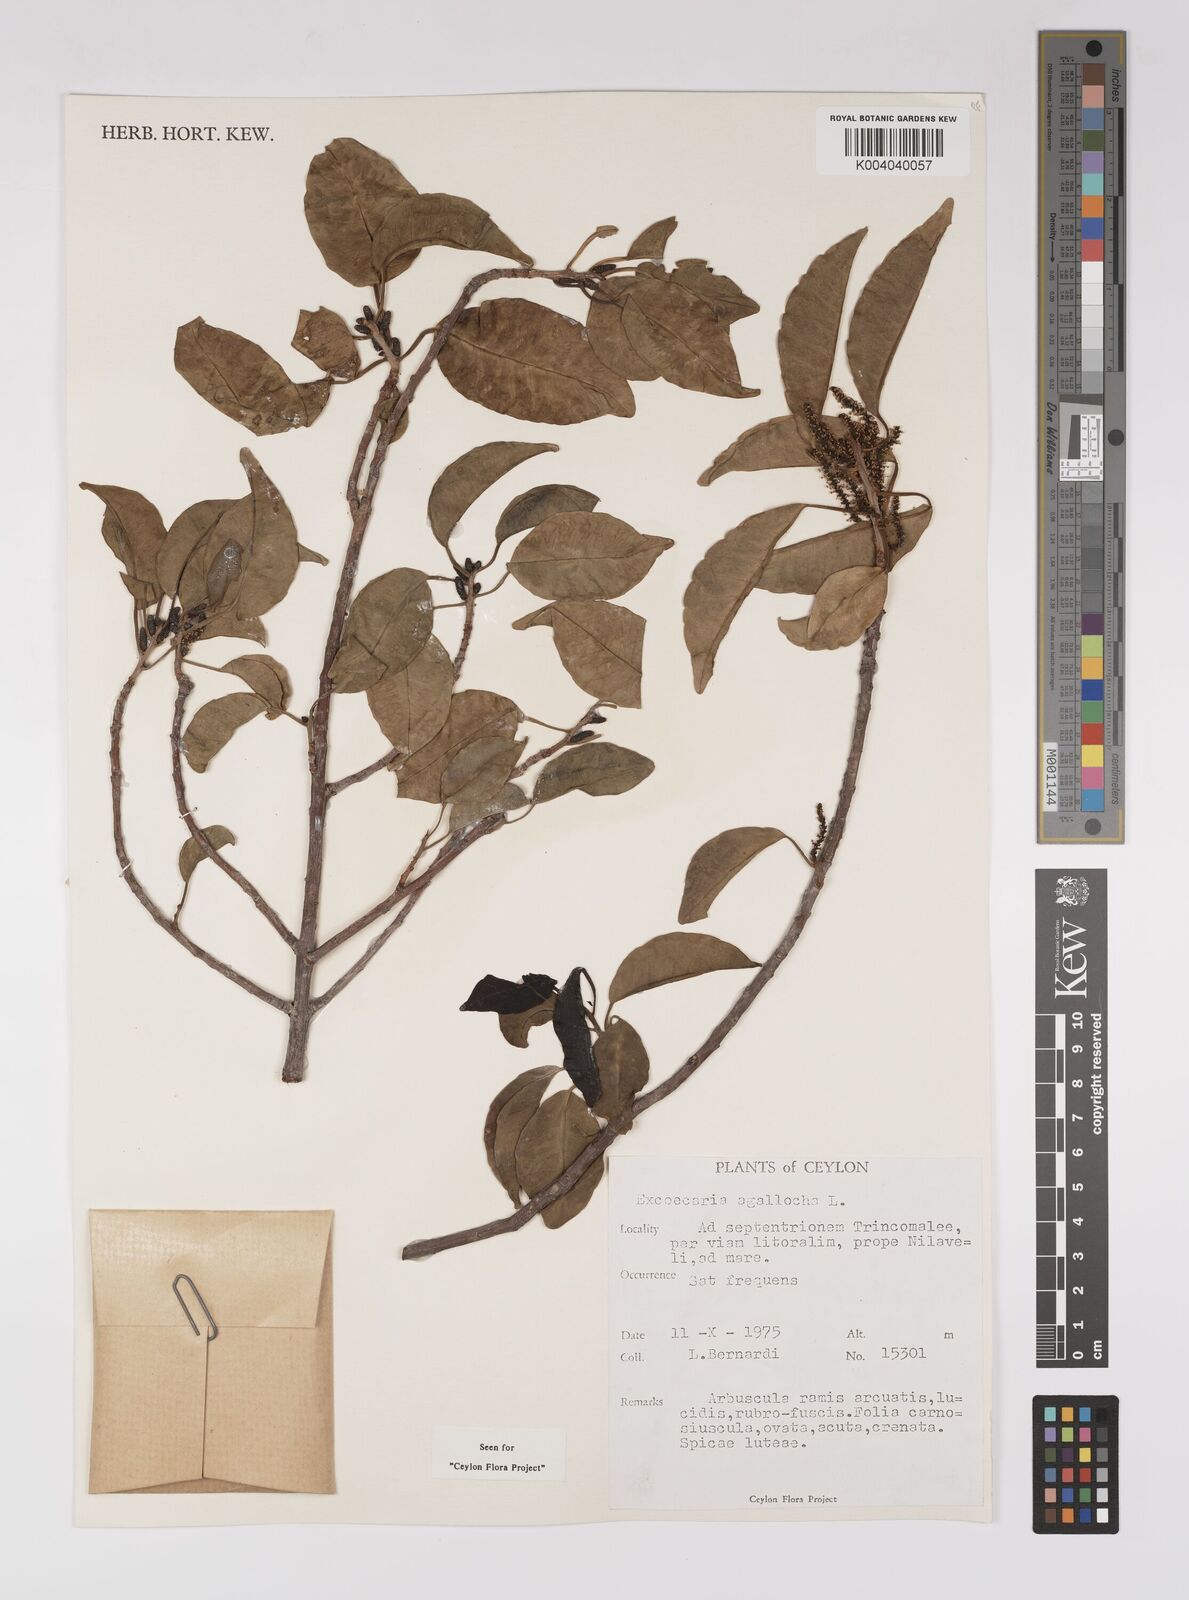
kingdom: Plantae
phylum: Tracheophyta
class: Magnoliopsida
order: Malpighiales
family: Euphorbiaceae
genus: Excoecaria
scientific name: Excoecaria agallocha
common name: River poisontree
